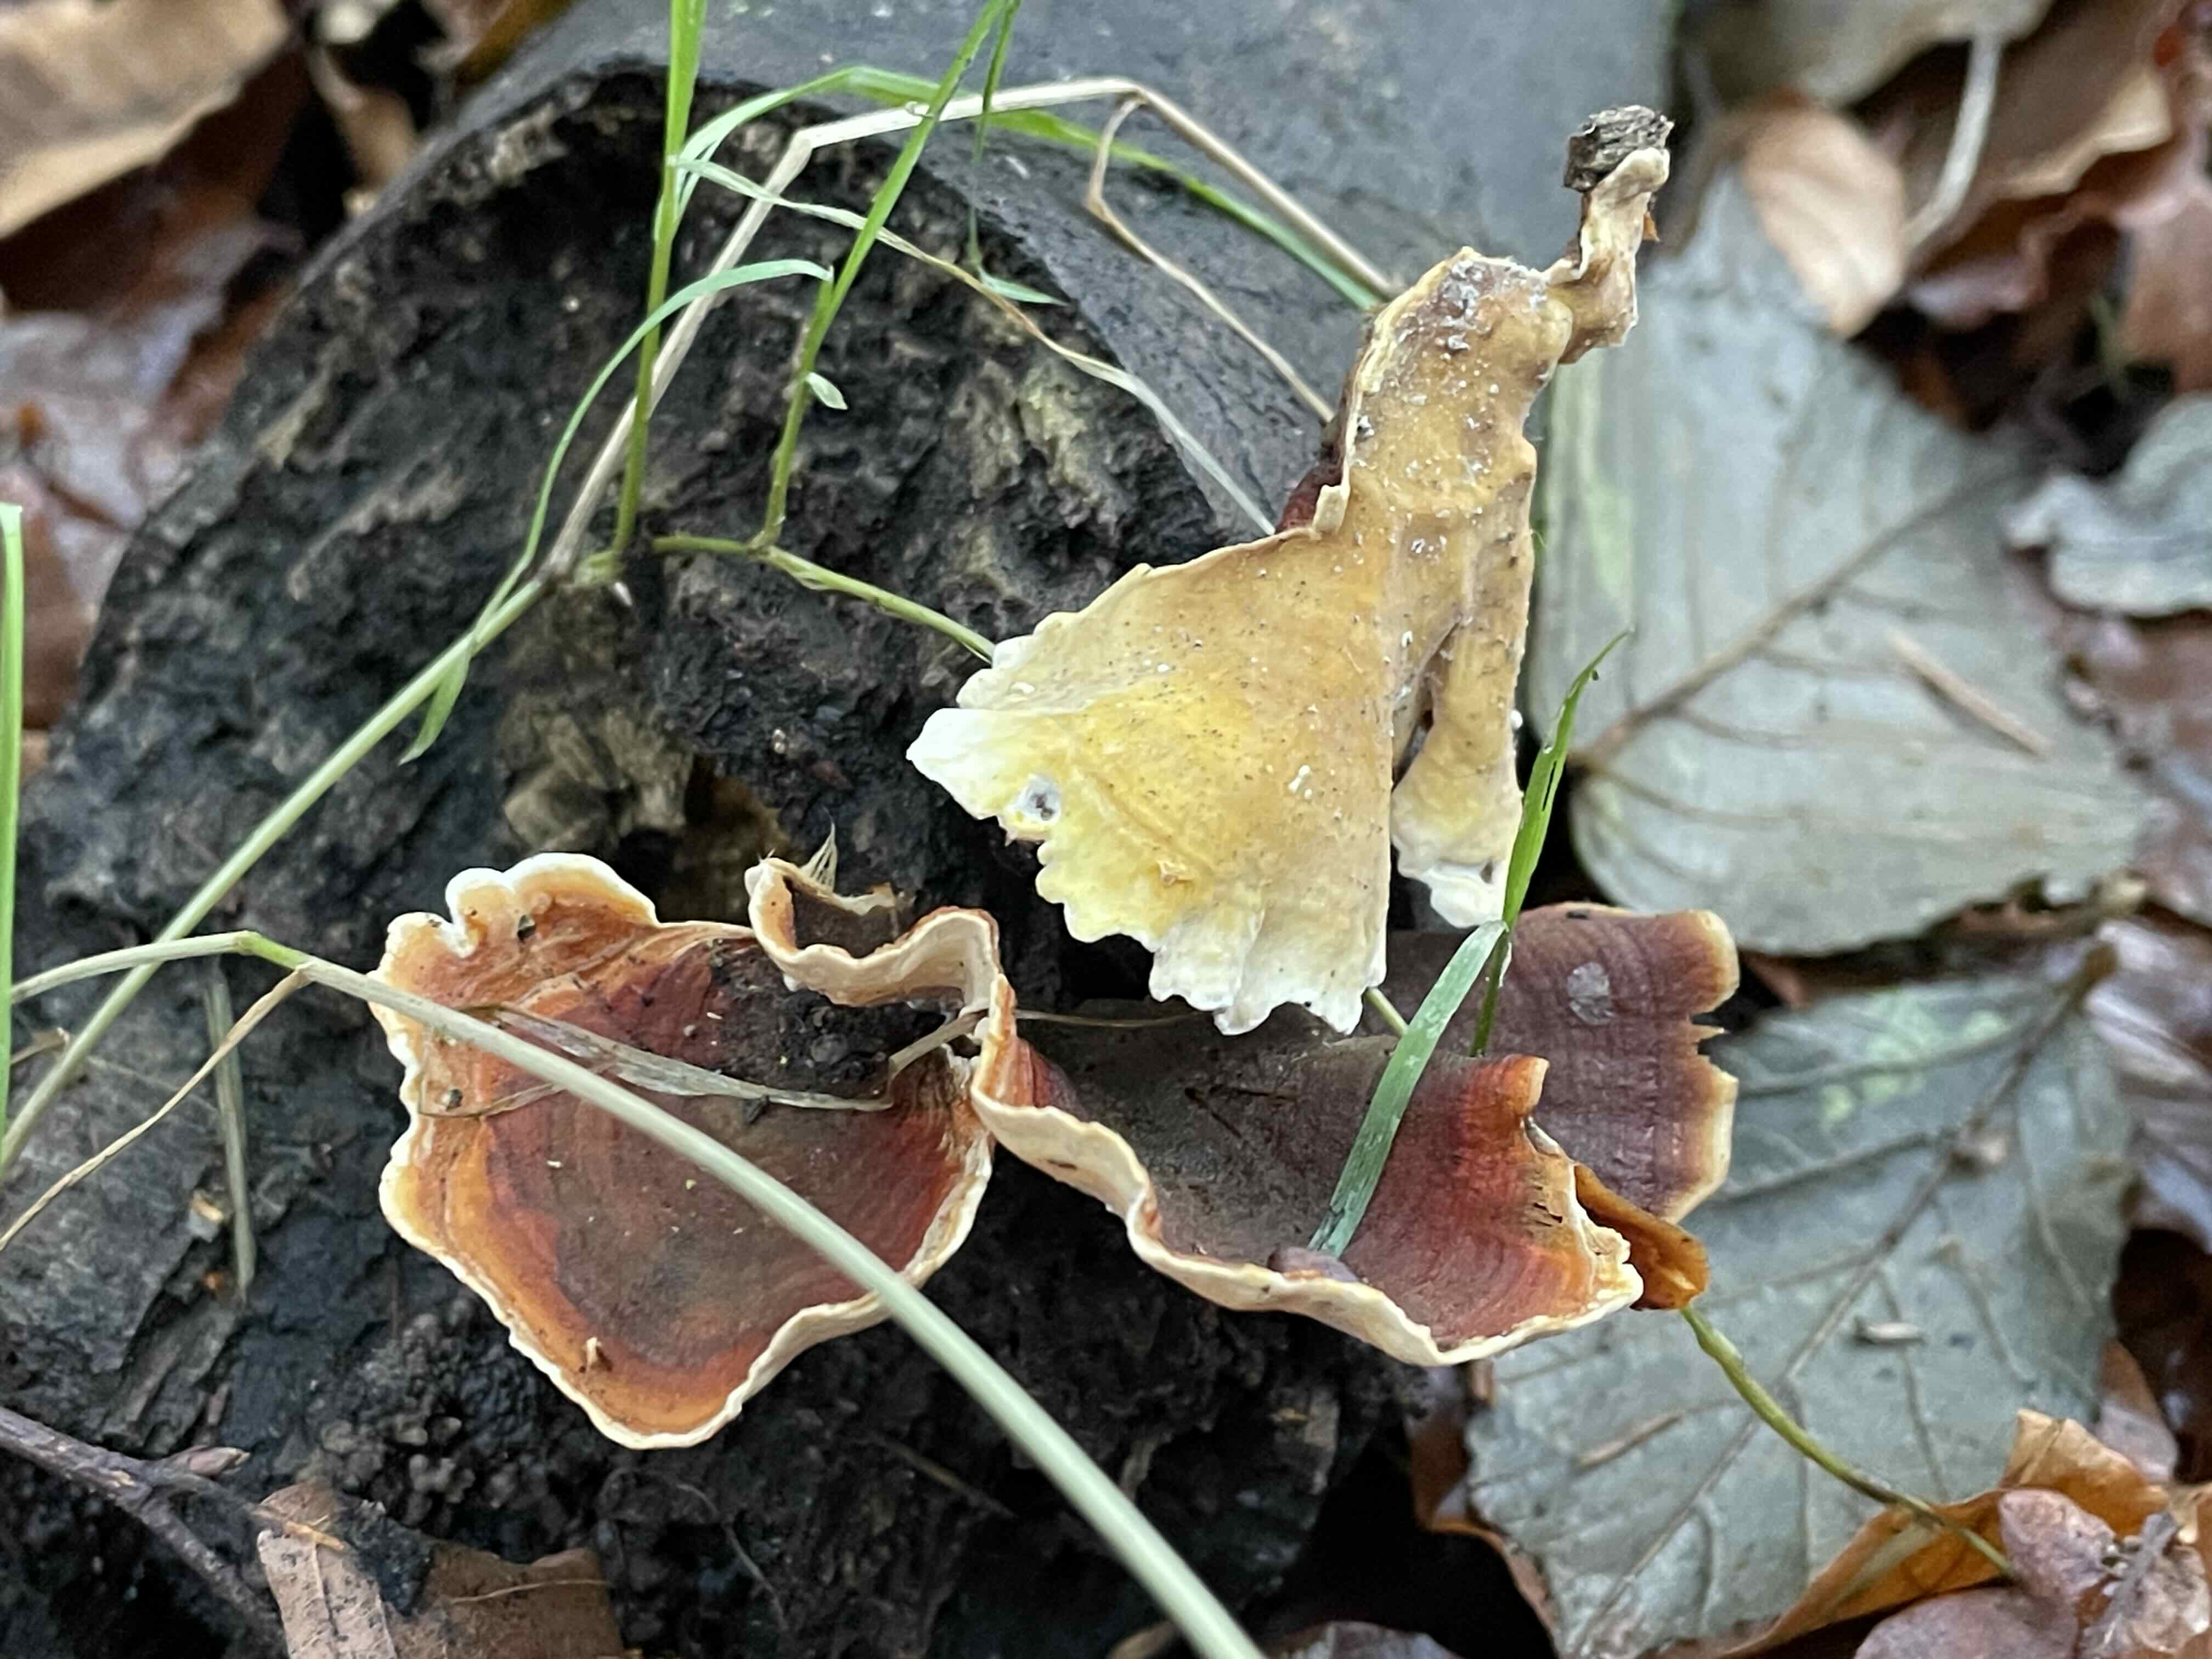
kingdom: Fungi
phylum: Basidiomycota
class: Agaricomycetes
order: Russulales
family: Stereaceae
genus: Stereum
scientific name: Stereum subtomentosum
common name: smuk lædersvamp
